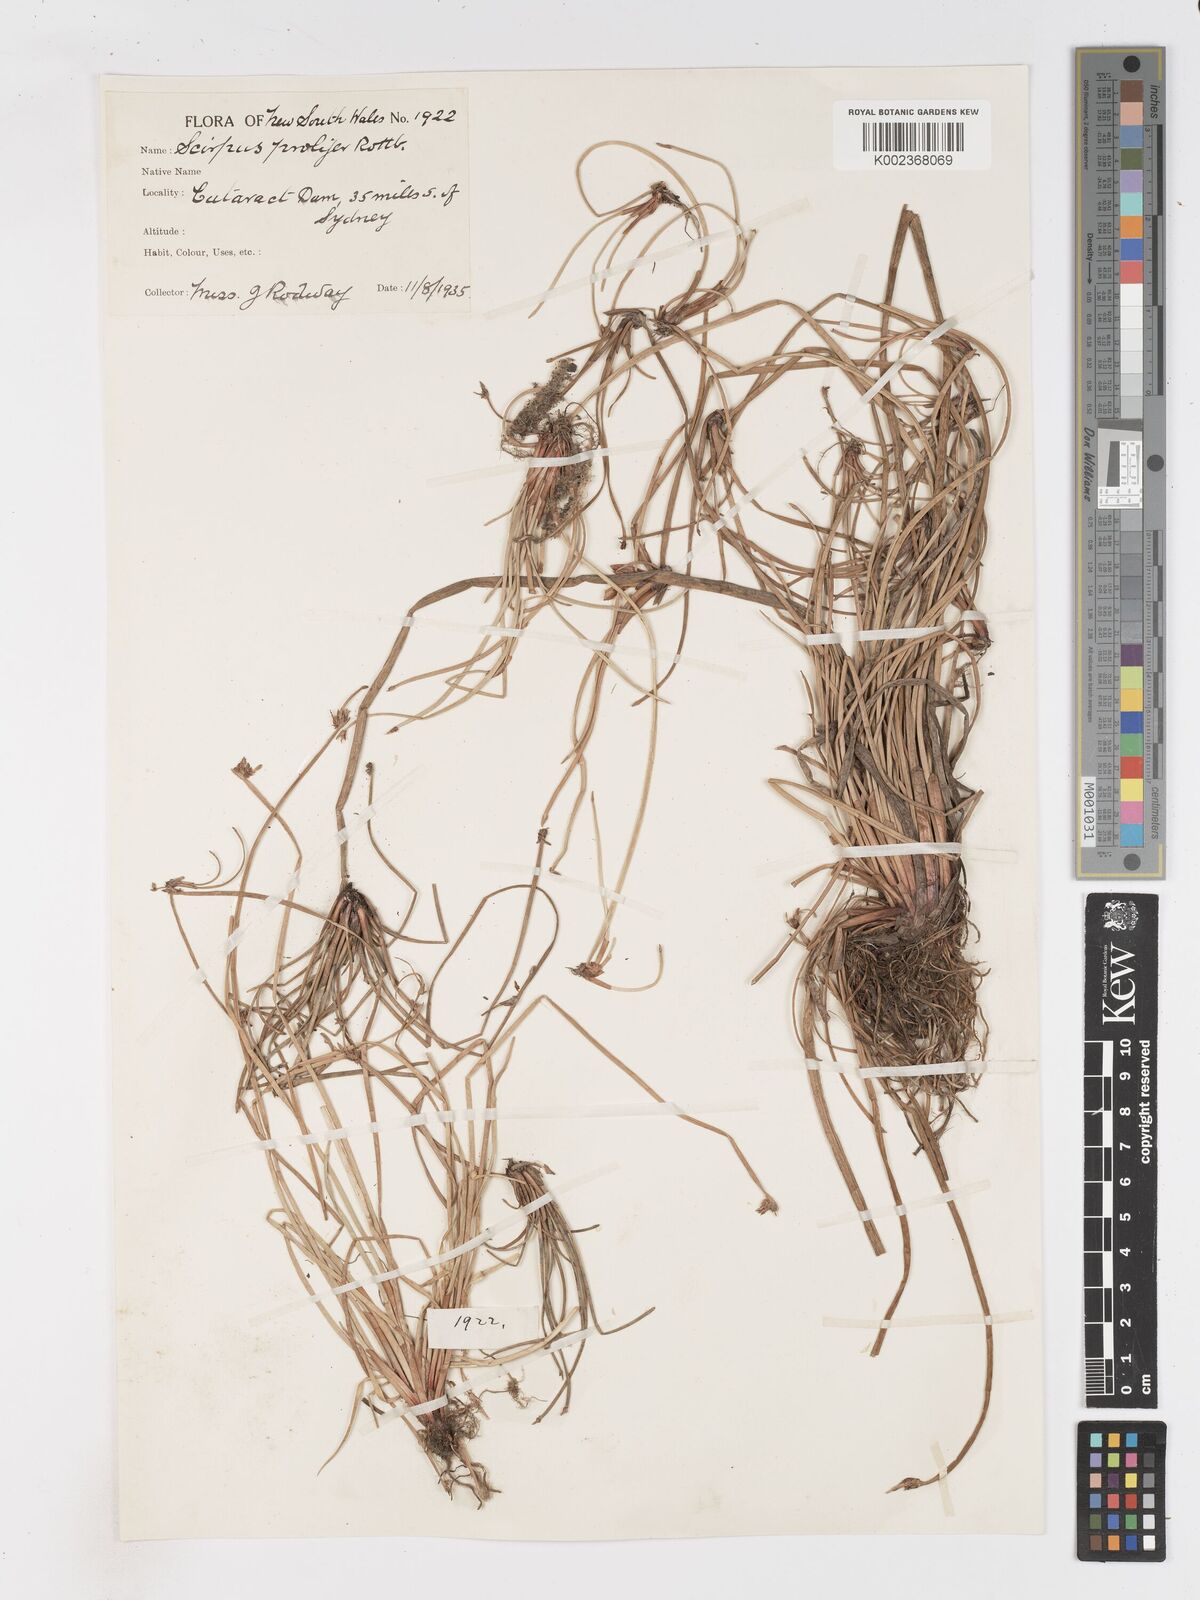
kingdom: Plantae
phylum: Tracheophyta
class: Liliopsida
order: Poales
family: Cyperaceae
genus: Isolepis
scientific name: Isolepis prolifera
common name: Proliferating bulrush
